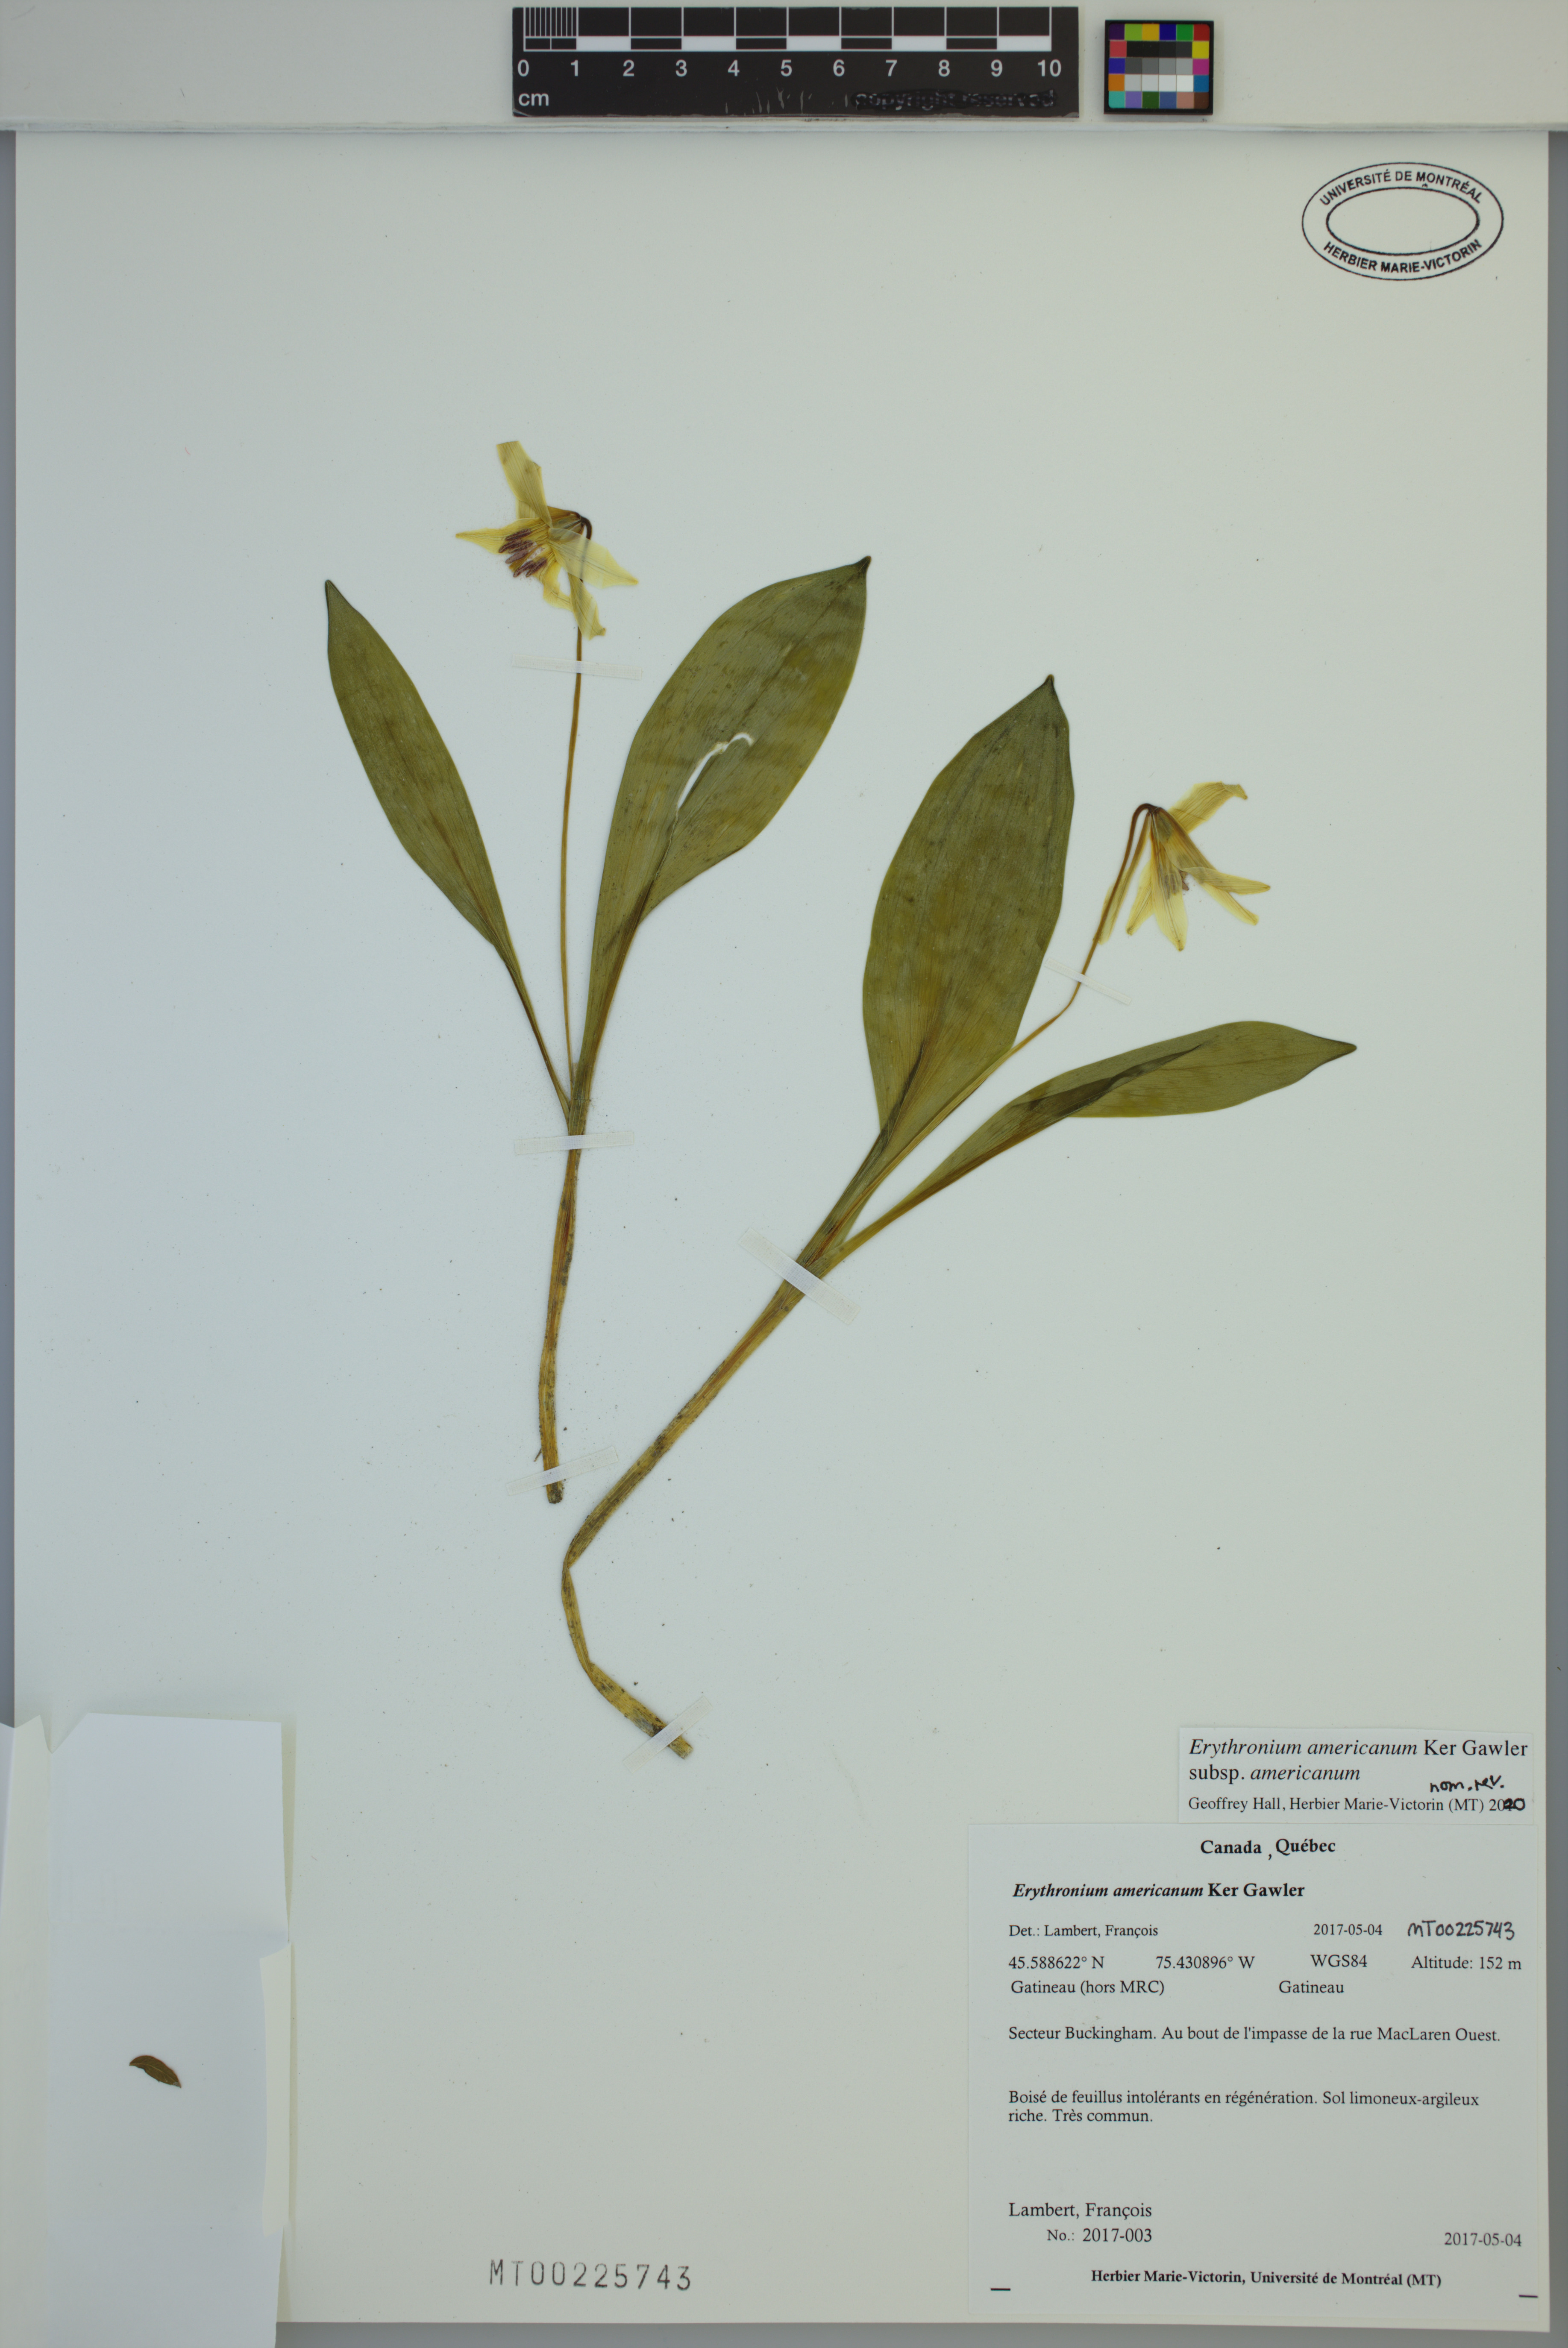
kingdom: Plantae
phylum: Tracheophyta
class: Liliopsida
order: Liliales
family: Liliaceae
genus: Erythronium
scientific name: Erythronium americanum
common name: Yellow adder's-tongue
